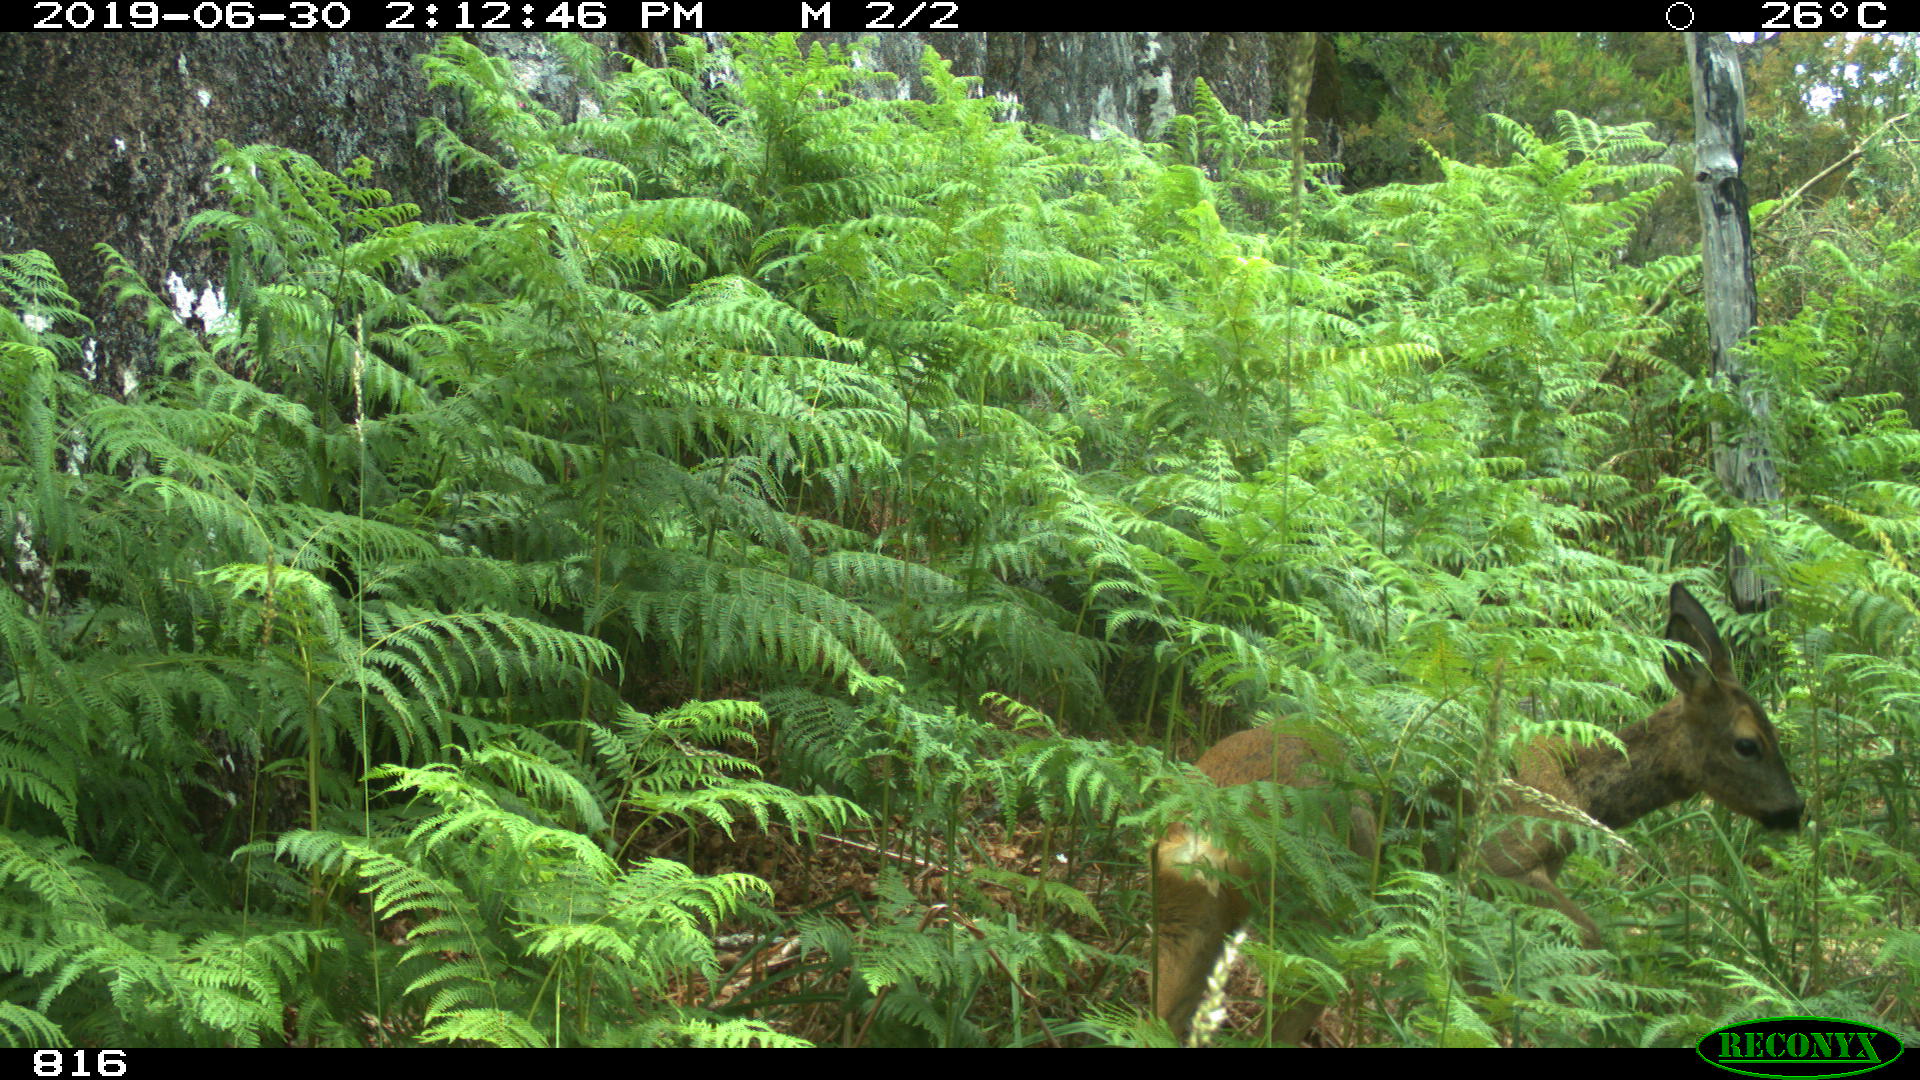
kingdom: Animalia
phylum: Chordata
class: Mammalia
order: Artiodactyla
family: Cervidae
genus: Capreolus
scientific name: Capreolus capreolus
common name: Western roe deer
